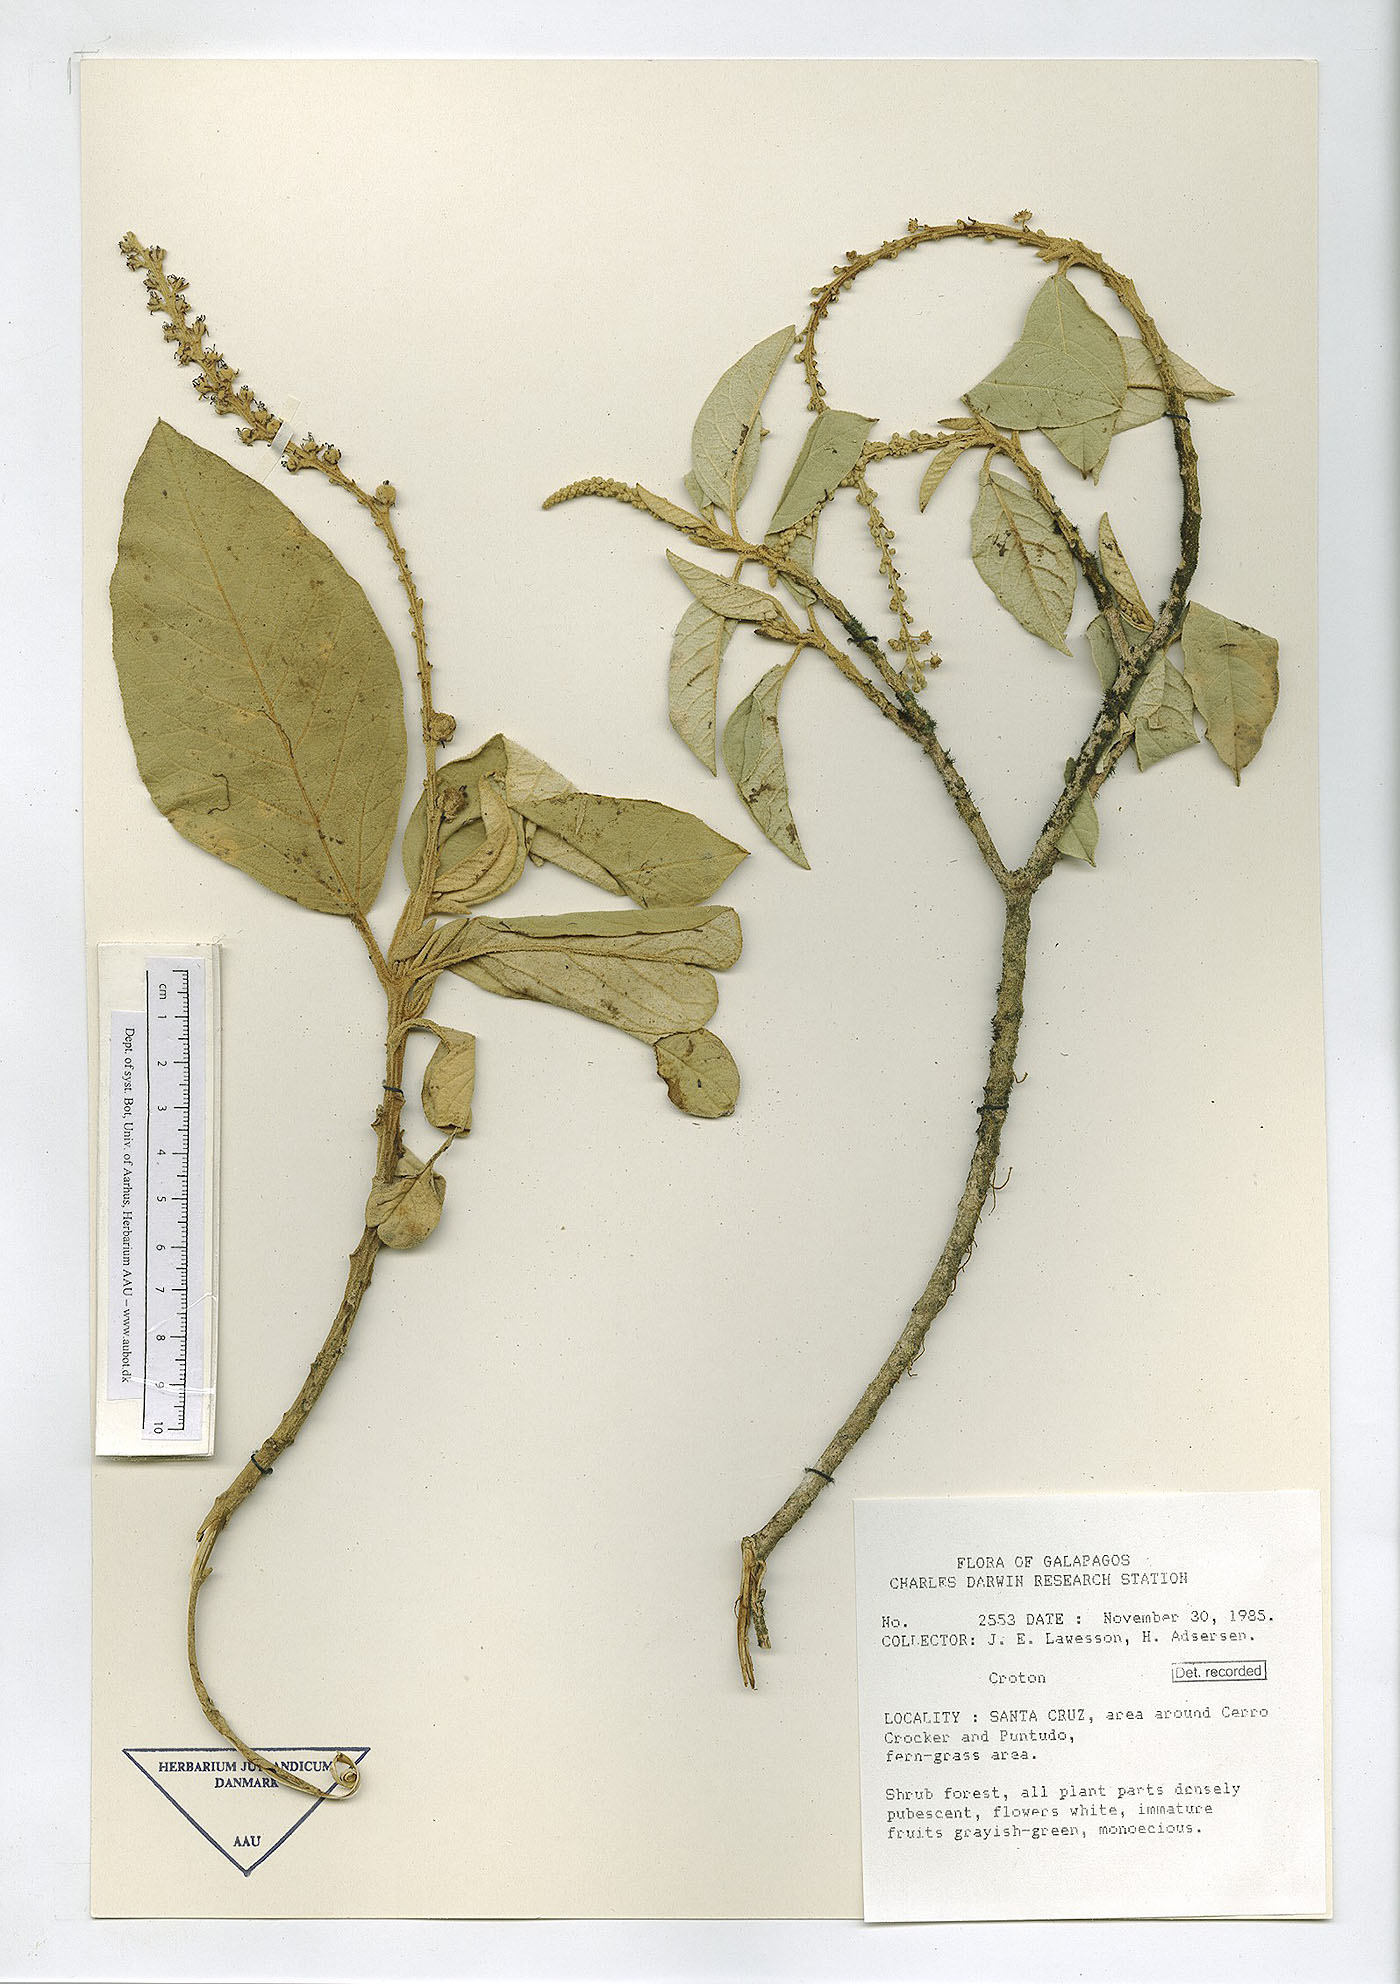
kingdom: Plantae
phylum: Tracheophyta
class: Magnoliopsida
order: Malpighiales
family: Euphorbiaceae
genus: Croton
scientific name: Croton scouleri
